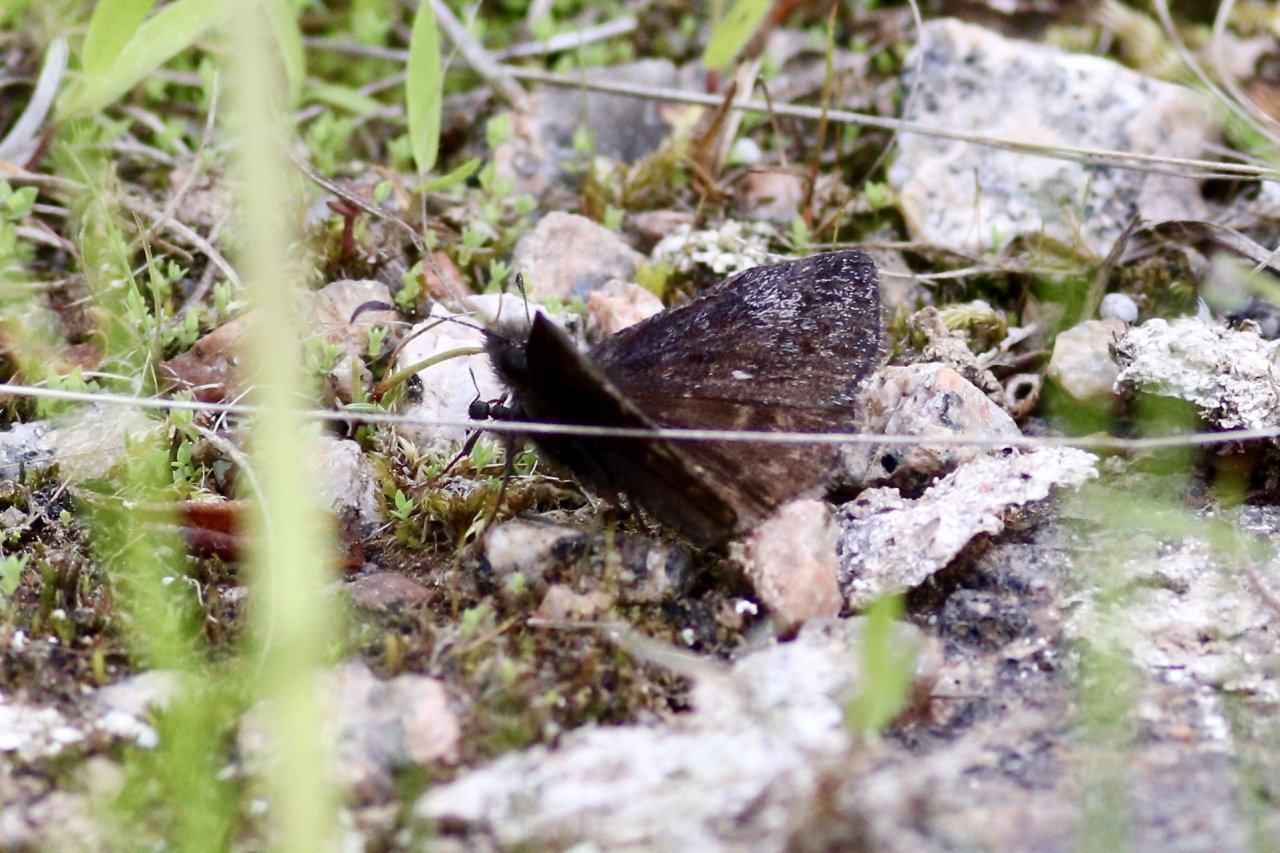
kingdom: Animalia
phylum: Arthropoda
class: Insecta
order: Lepidoptera
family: Hesperiidae
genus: Erynnis
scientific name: Erynnis icelus
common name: Dreamy Duskywing
